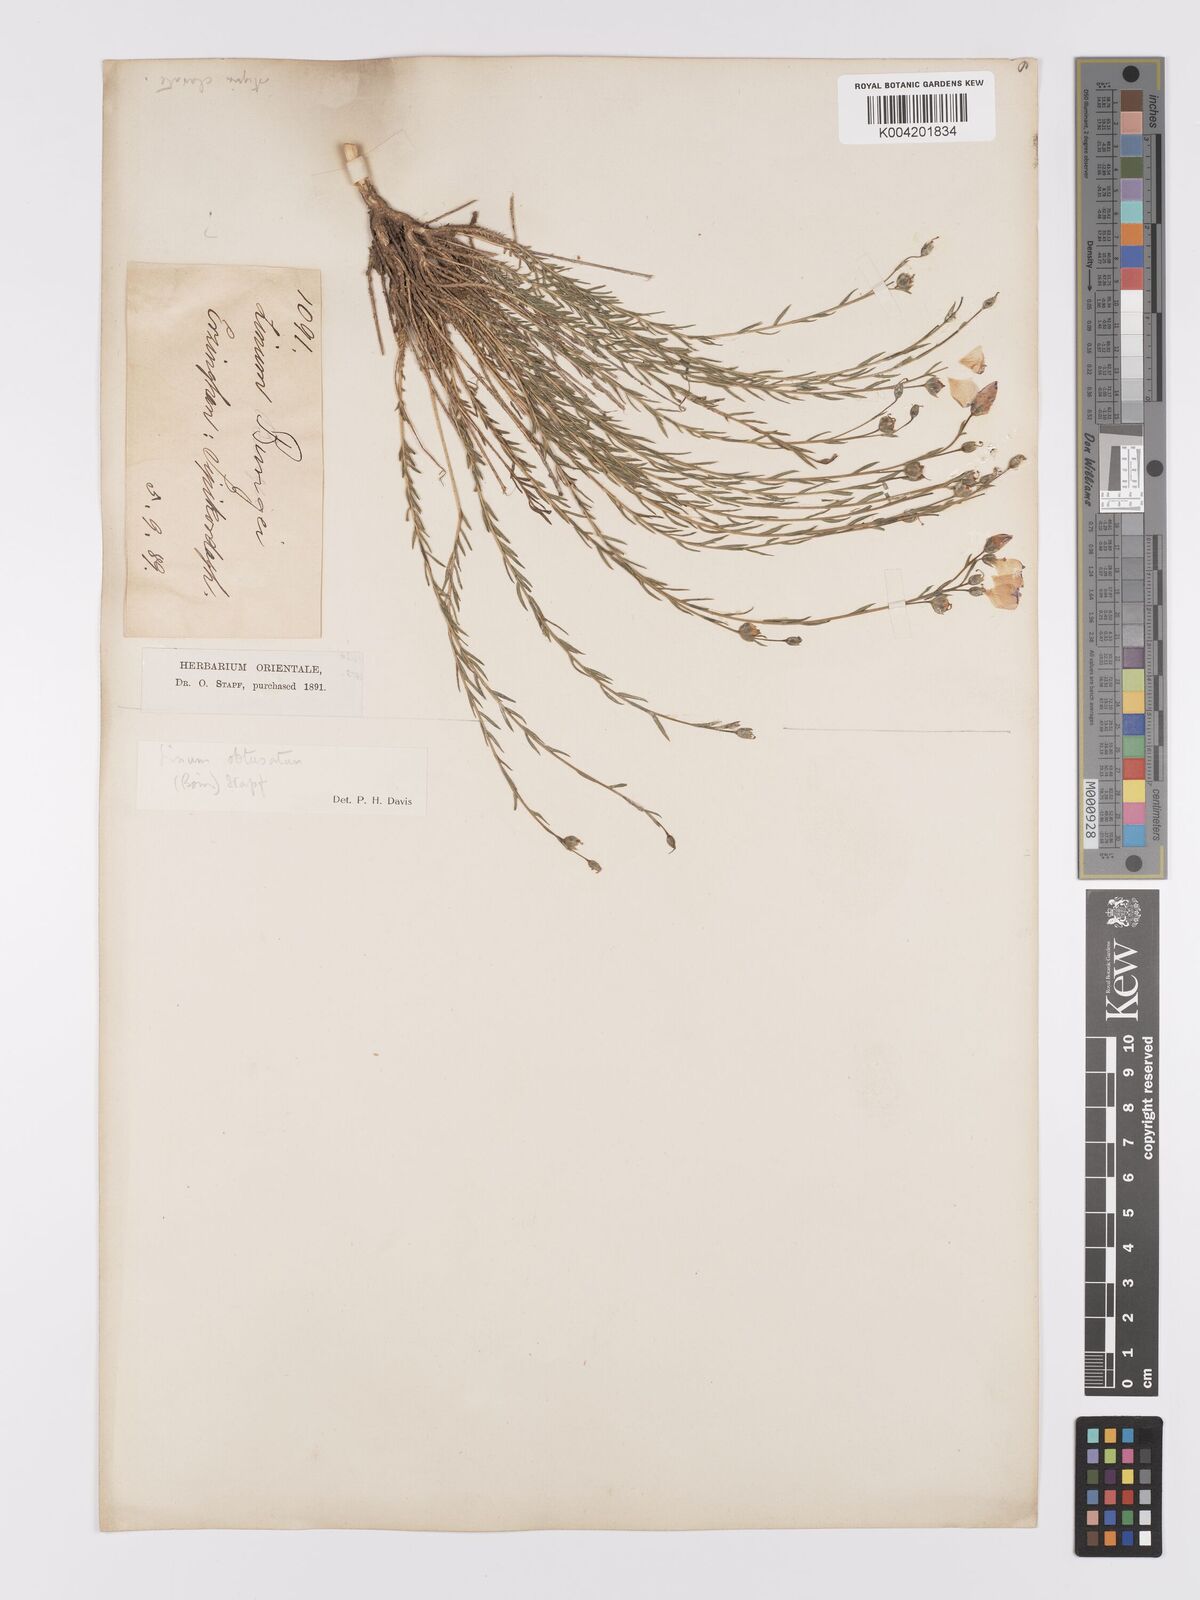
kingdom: Plantae
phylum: Tracheophyta
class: Magnoliopsida
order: Malpighiales
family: Linaceae
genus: Linum
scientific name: Linum obtusatum
